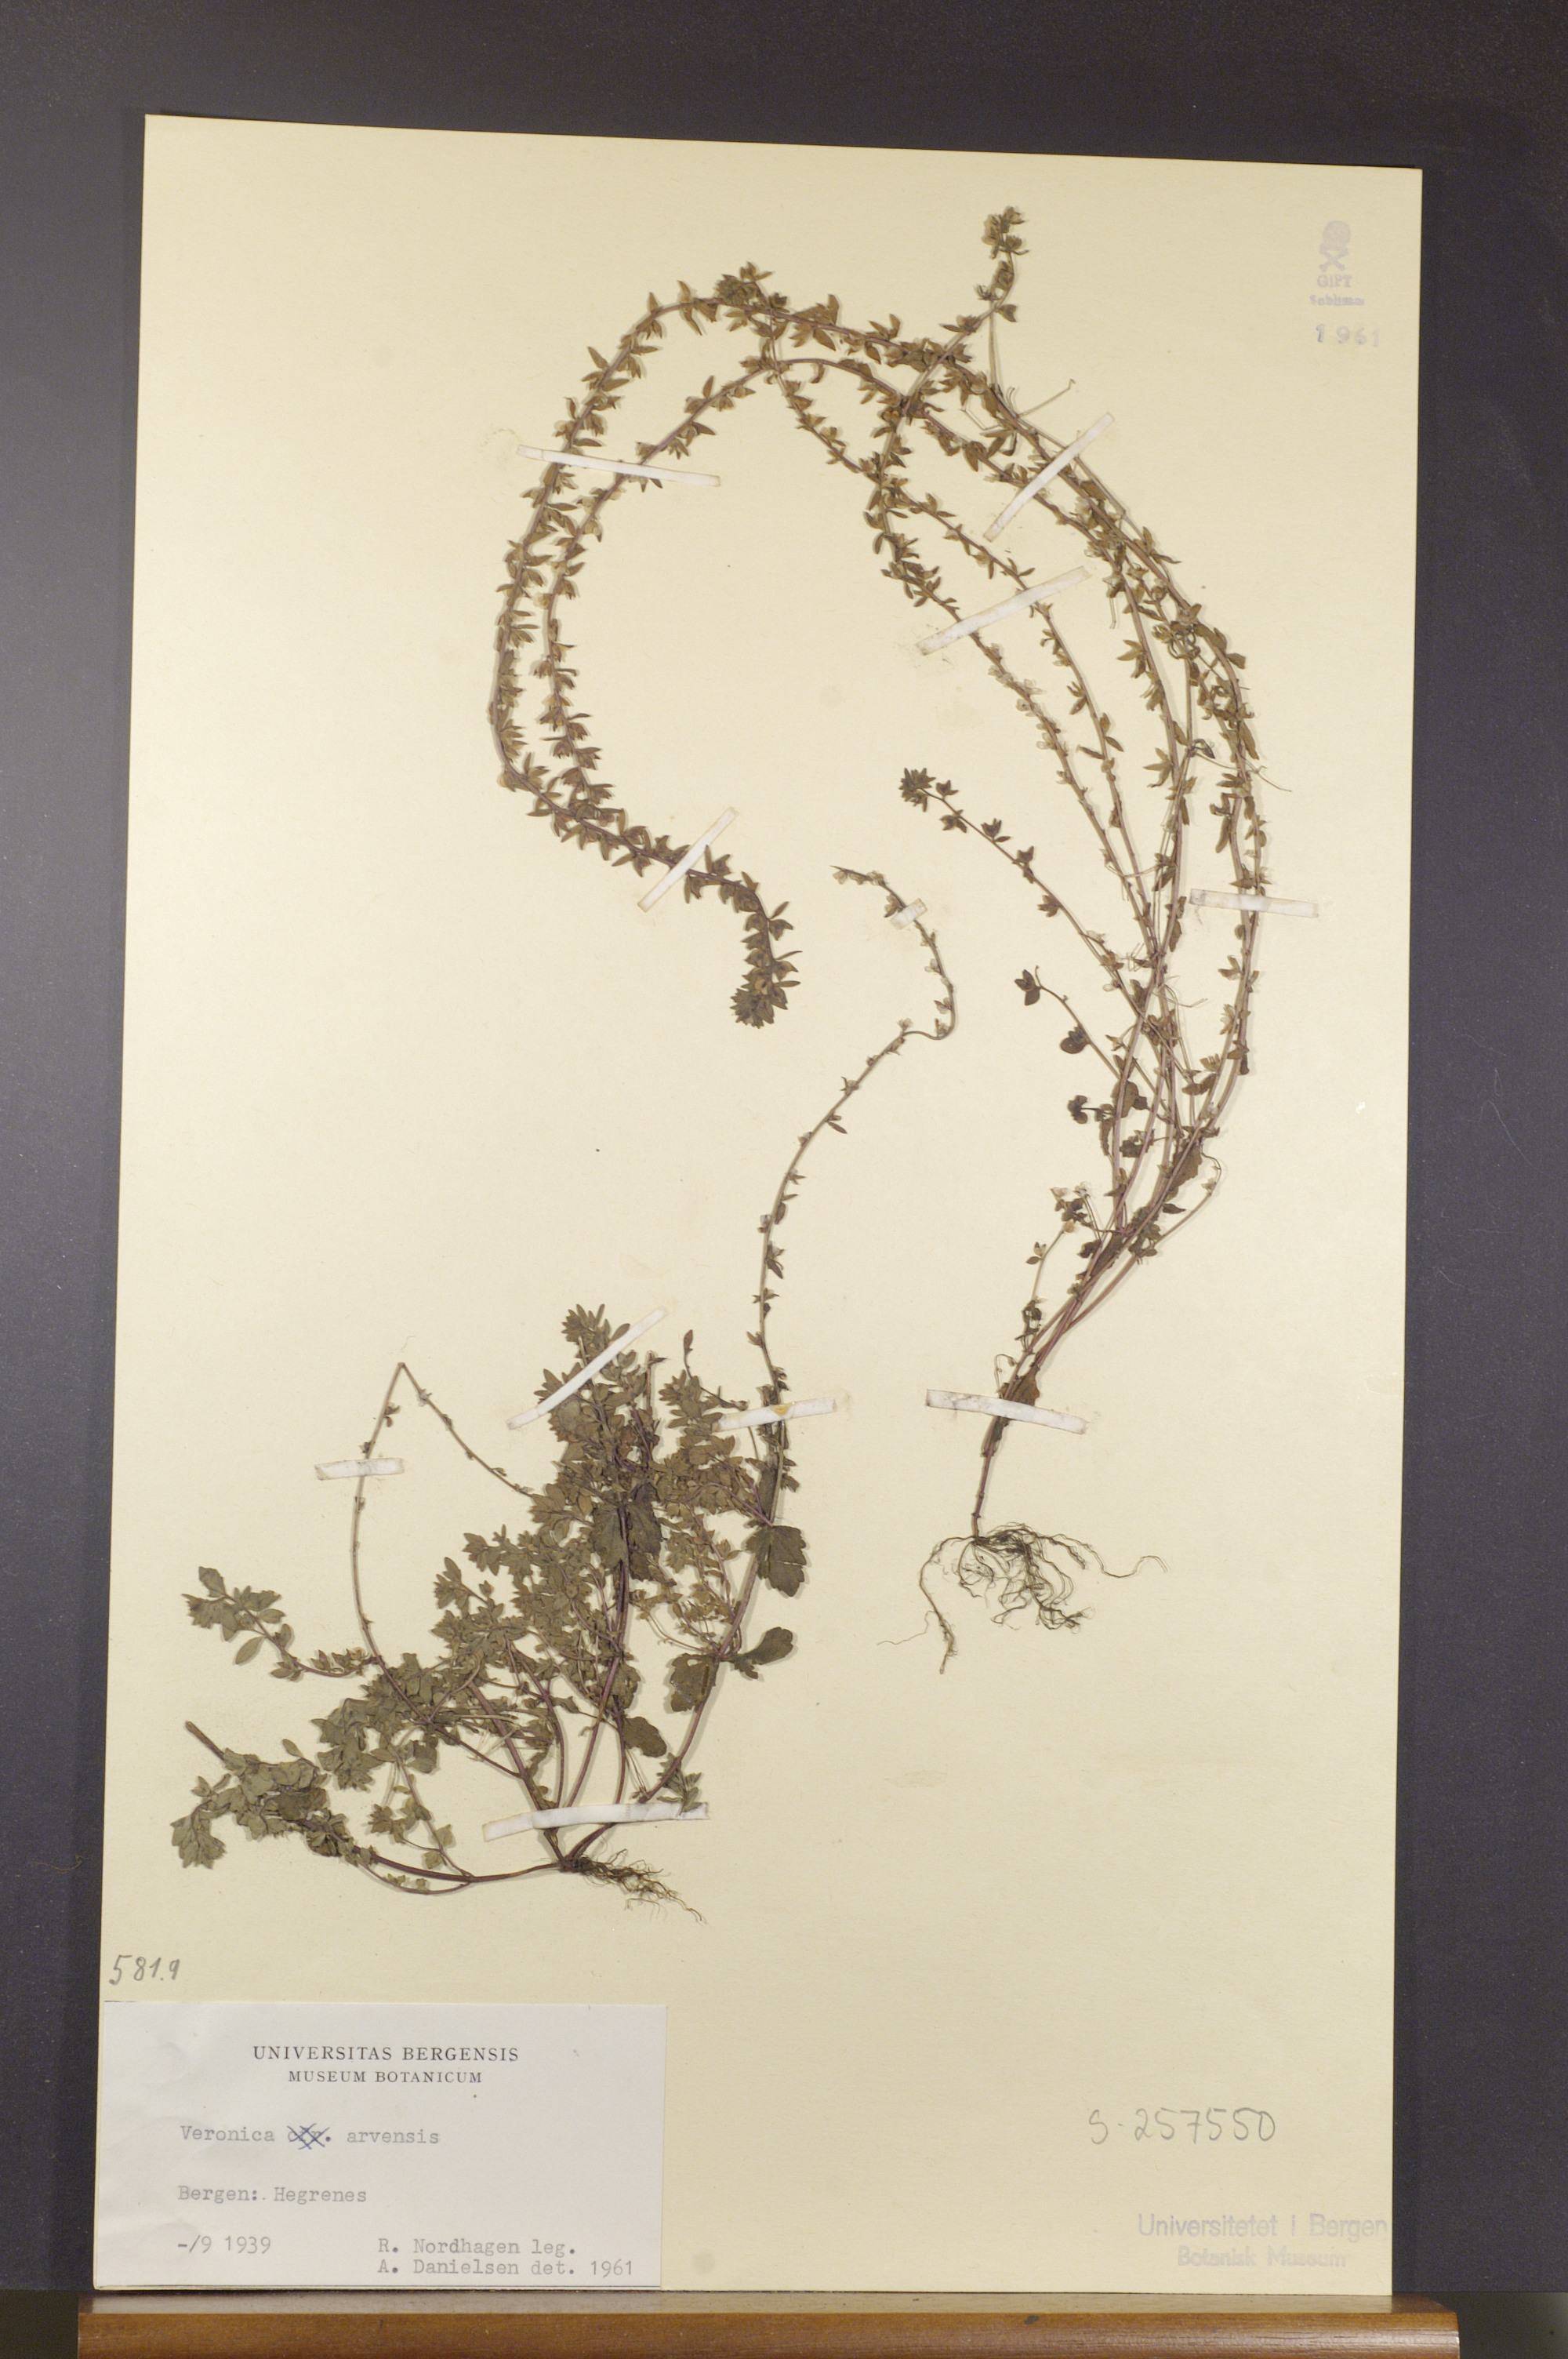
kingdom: Plantae
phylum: Tracheophyta
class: Magnoliopsida
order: Lamiales
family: Plantaginaceae
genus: Veronica
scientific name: Veronica arvensis
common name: Corn speedwell
